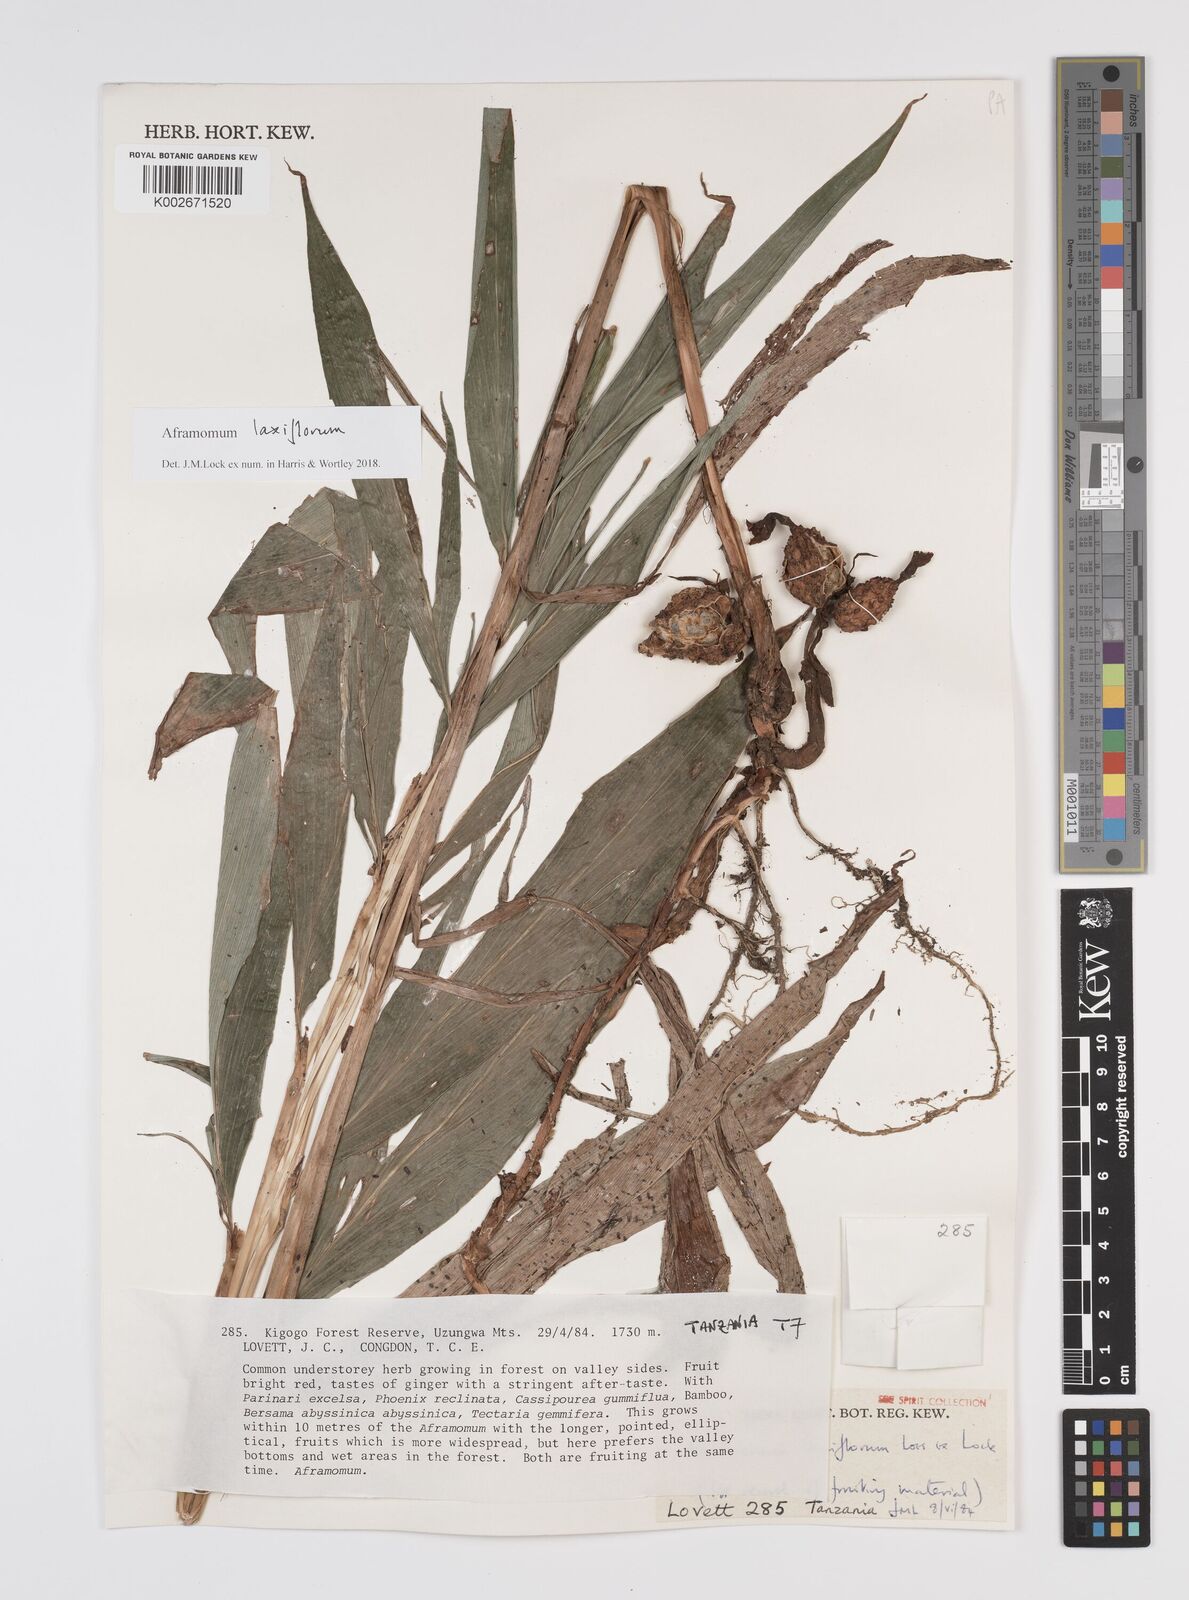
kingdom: Plantae
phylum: Tracheophyta
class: Liliopsida
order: Zingiberales
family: Zingiberaceae
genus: Aframomum
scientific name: Aframomum laxiflorum
